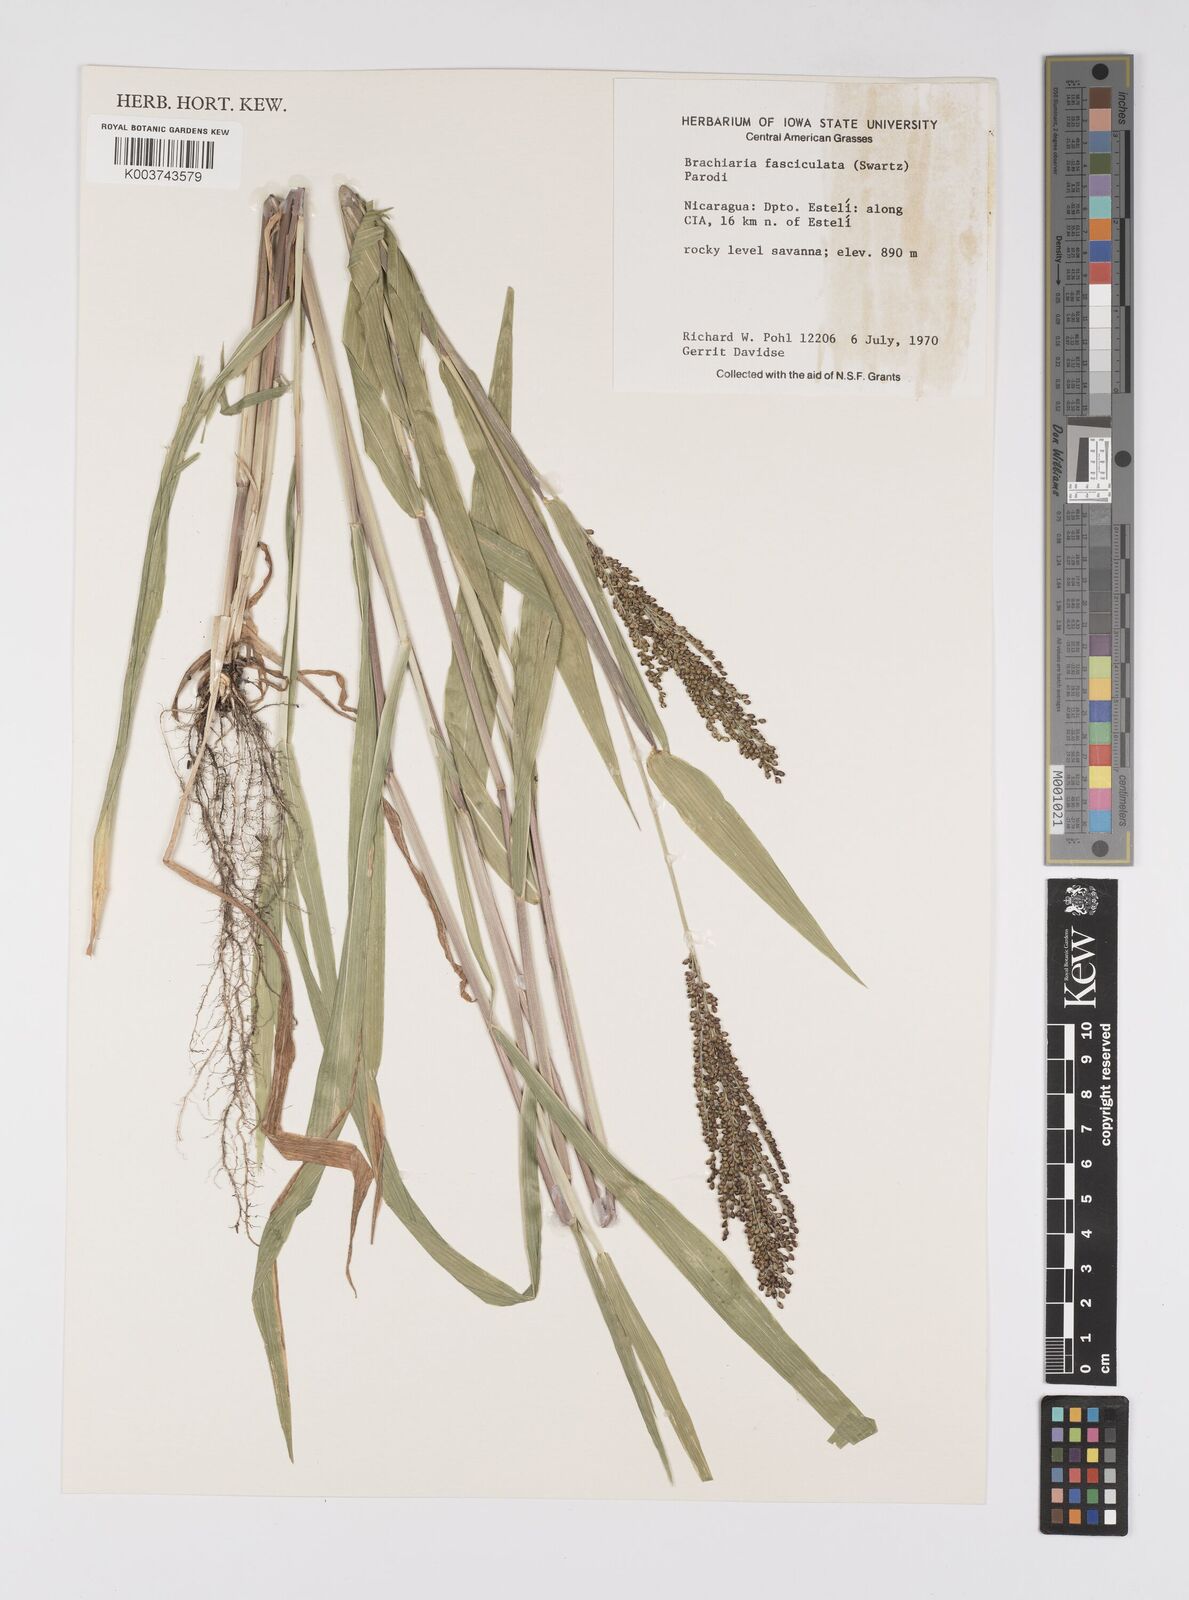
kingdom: Plantae
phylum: Tracheophyta
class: Liliopsida
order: Poales
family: Poaceae
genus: Urochloa
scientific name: Urochloa fusca
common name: Browntop signal grass
